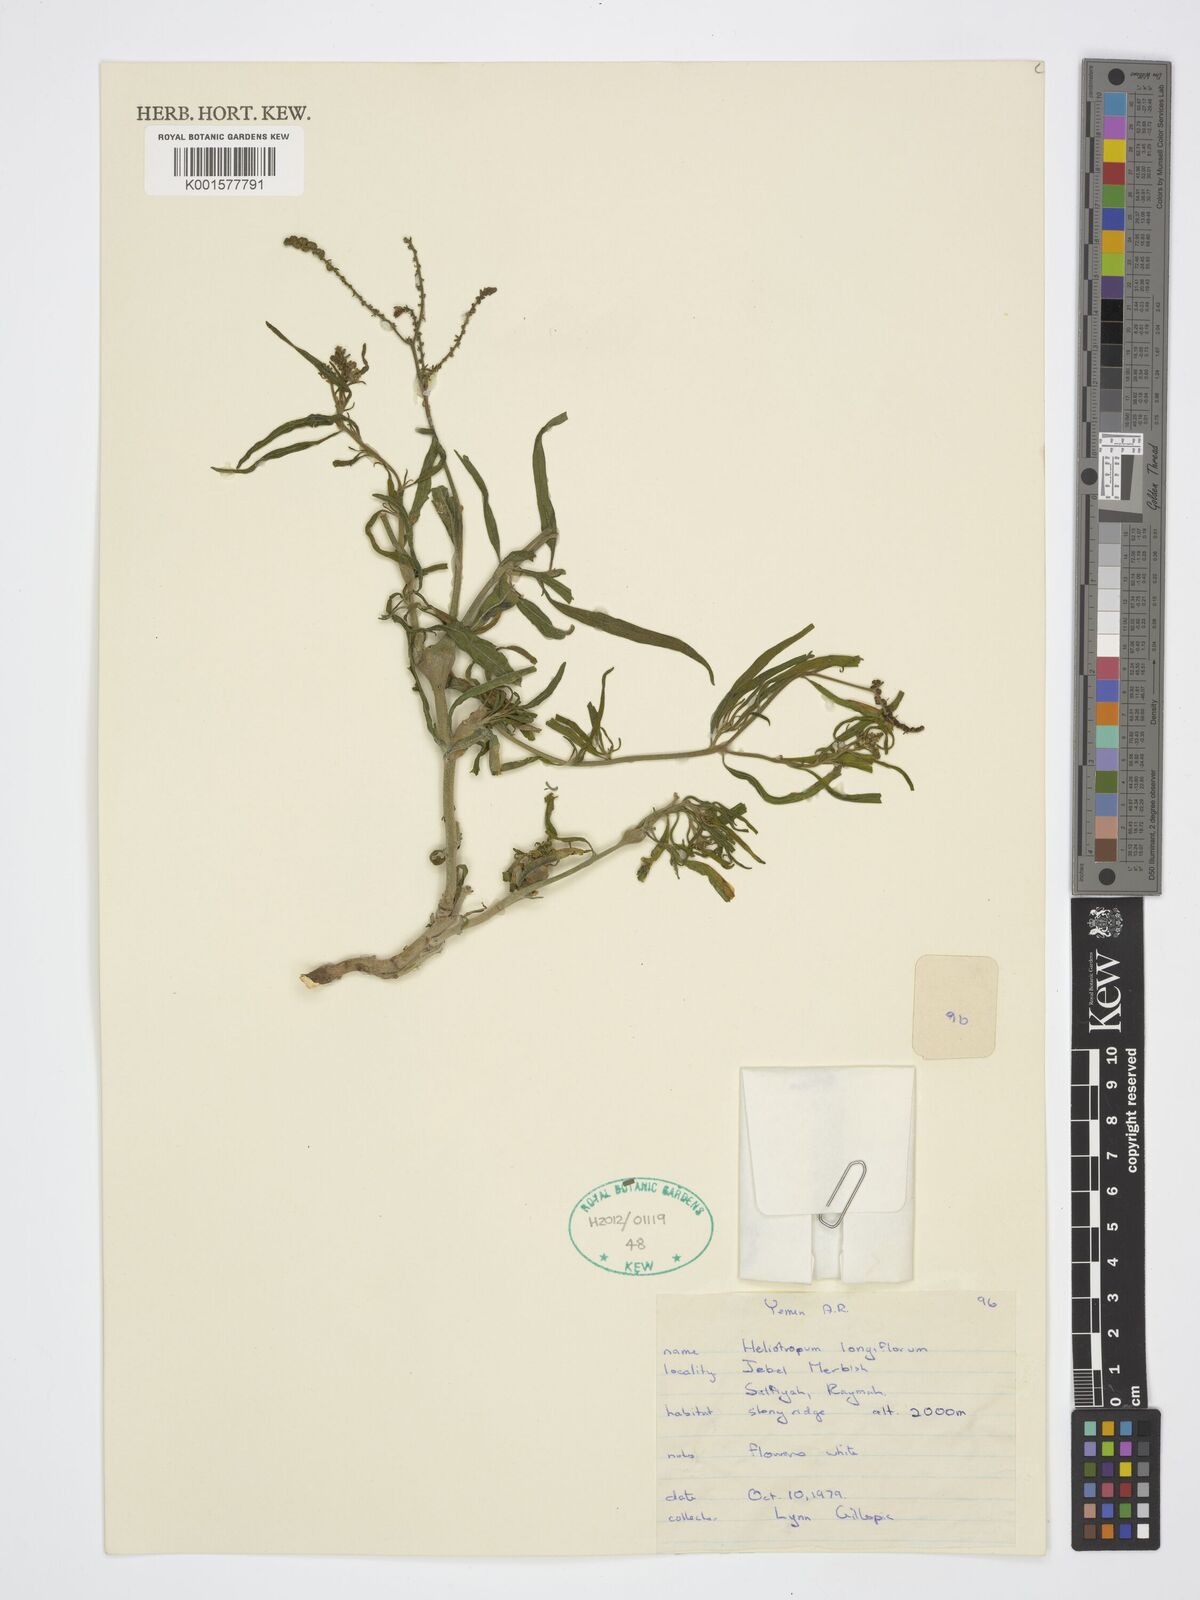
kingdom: Plantae
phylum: Tracheophyta
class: Magnoliopsida
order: Boraginales
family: Heliotropiaceae
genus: Heliotropium
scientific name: Heliotropium longiflorum
